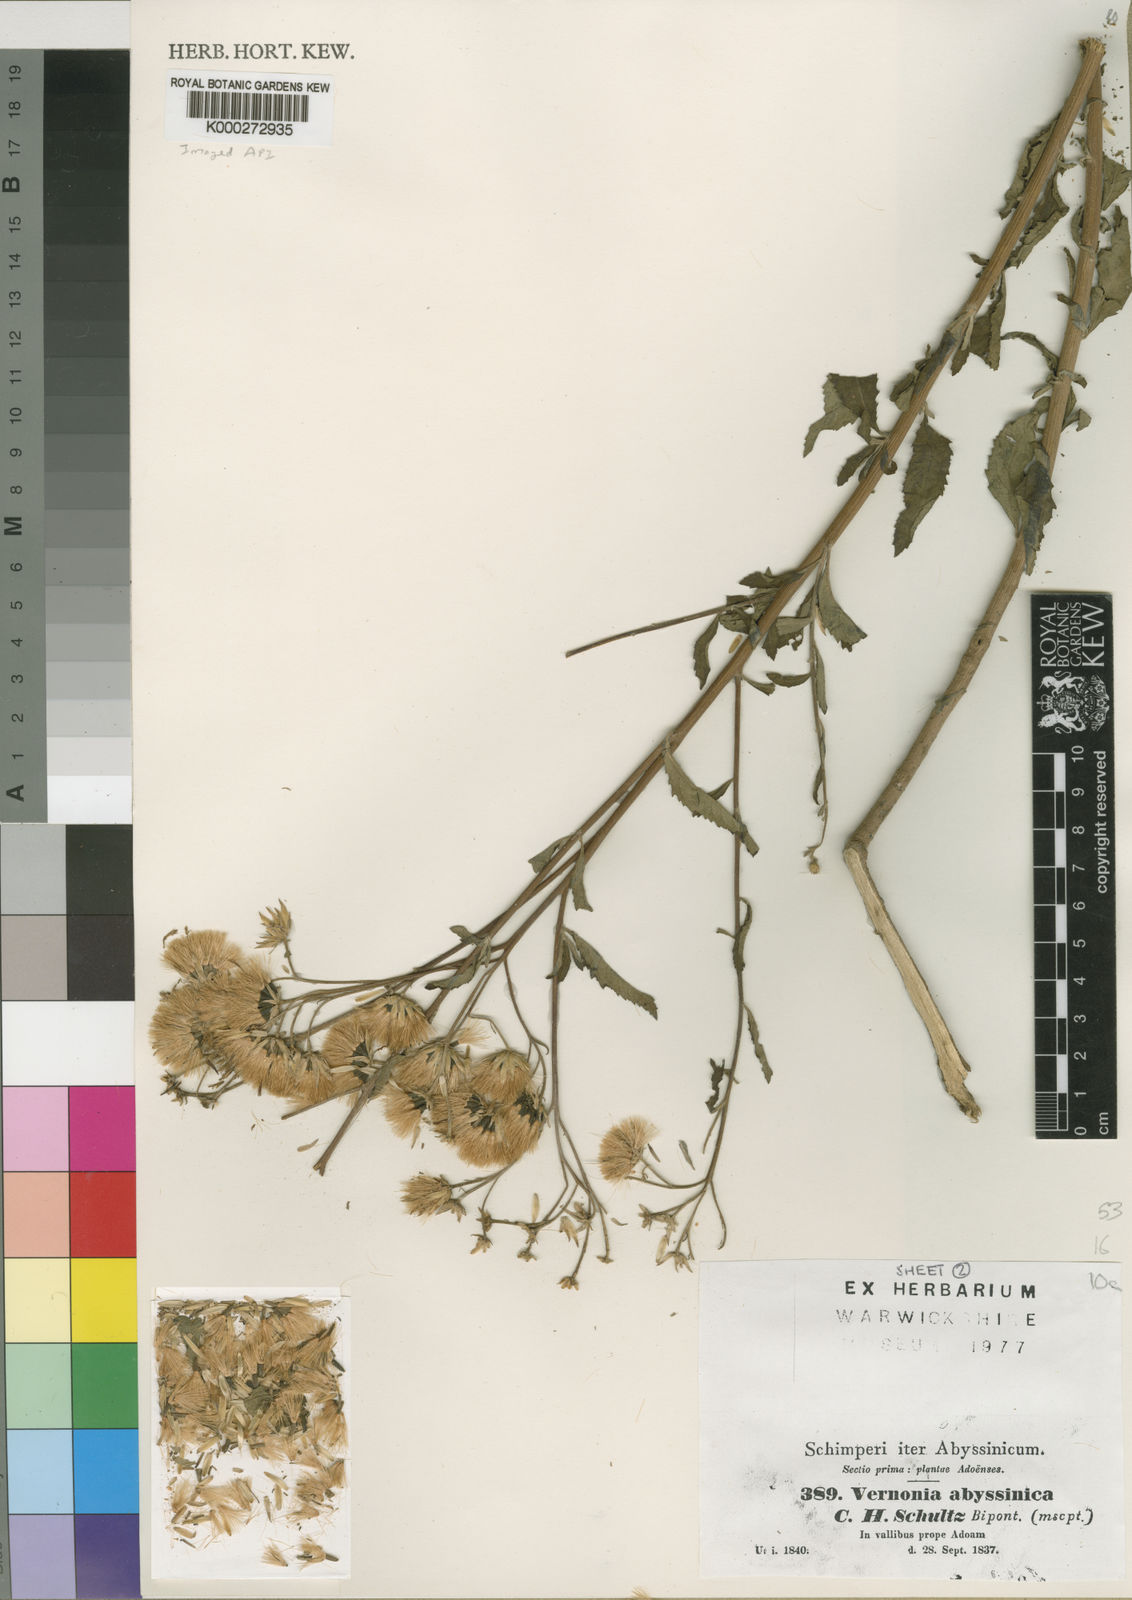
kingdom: Plantae
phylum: Tracheophyta
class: Magnoliopsida
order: Asterales
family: Asteraceae
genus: Nothovernonia
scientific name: Nothovernonia purpurea
